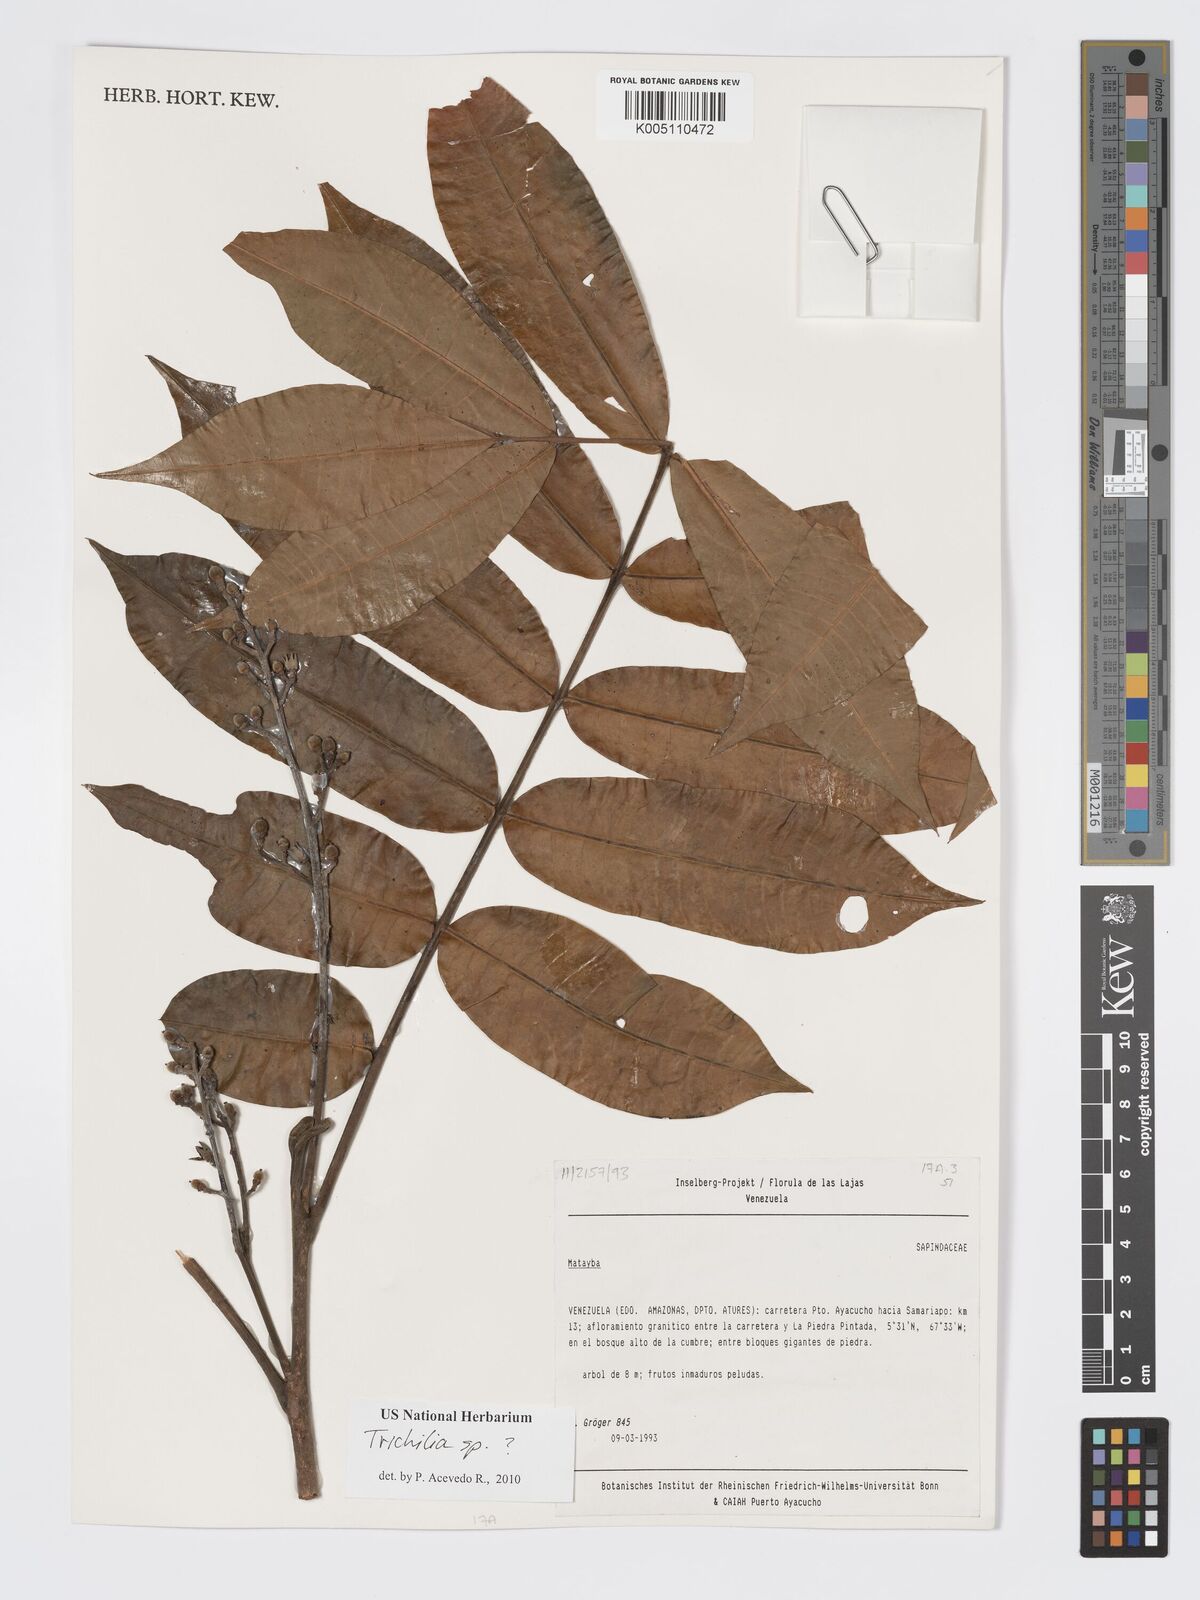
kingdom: Plantae
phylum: Tracheophyta
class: Magnoliopsida
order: Sapindales
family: Meliaceae
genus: Trichilia
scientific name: Trichilia
